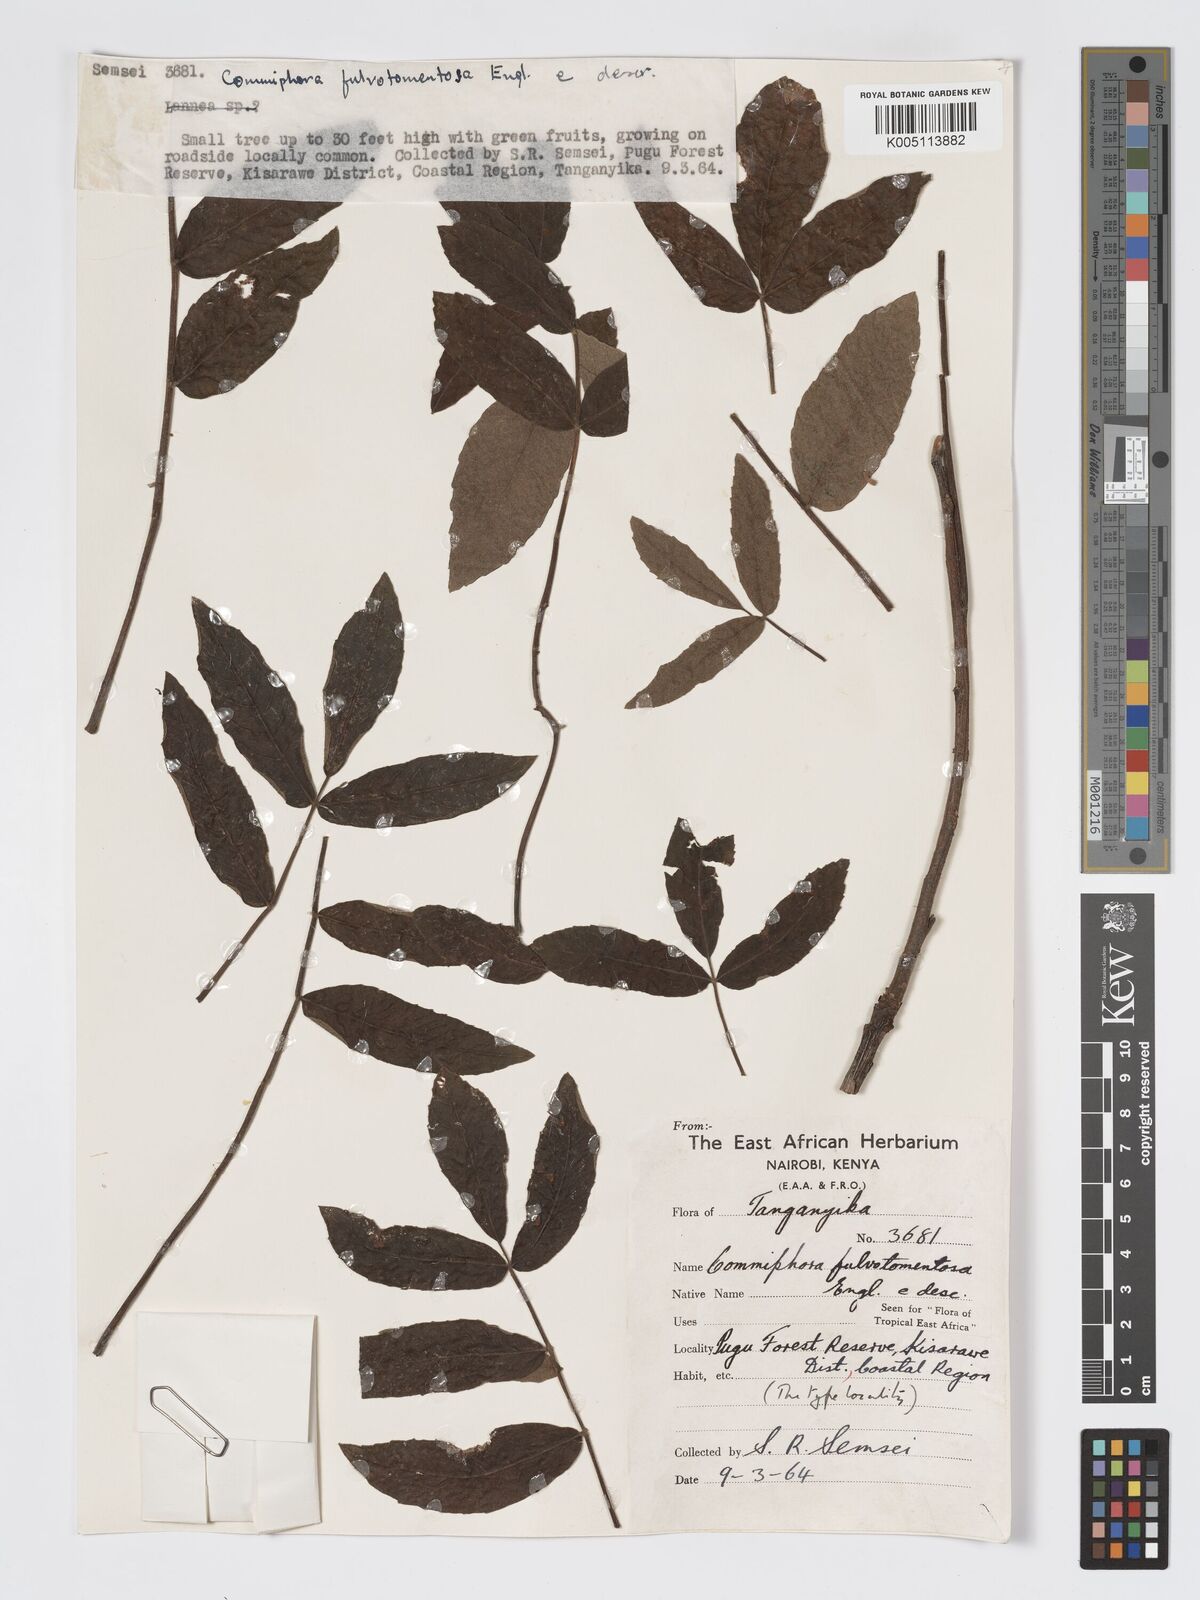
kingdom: Plantae
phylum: Tracheophyta
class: Magnoliopsida
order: Sapindales
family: Burseraceae
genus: Commiphora
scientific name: Commiphora fulvotomentosa
